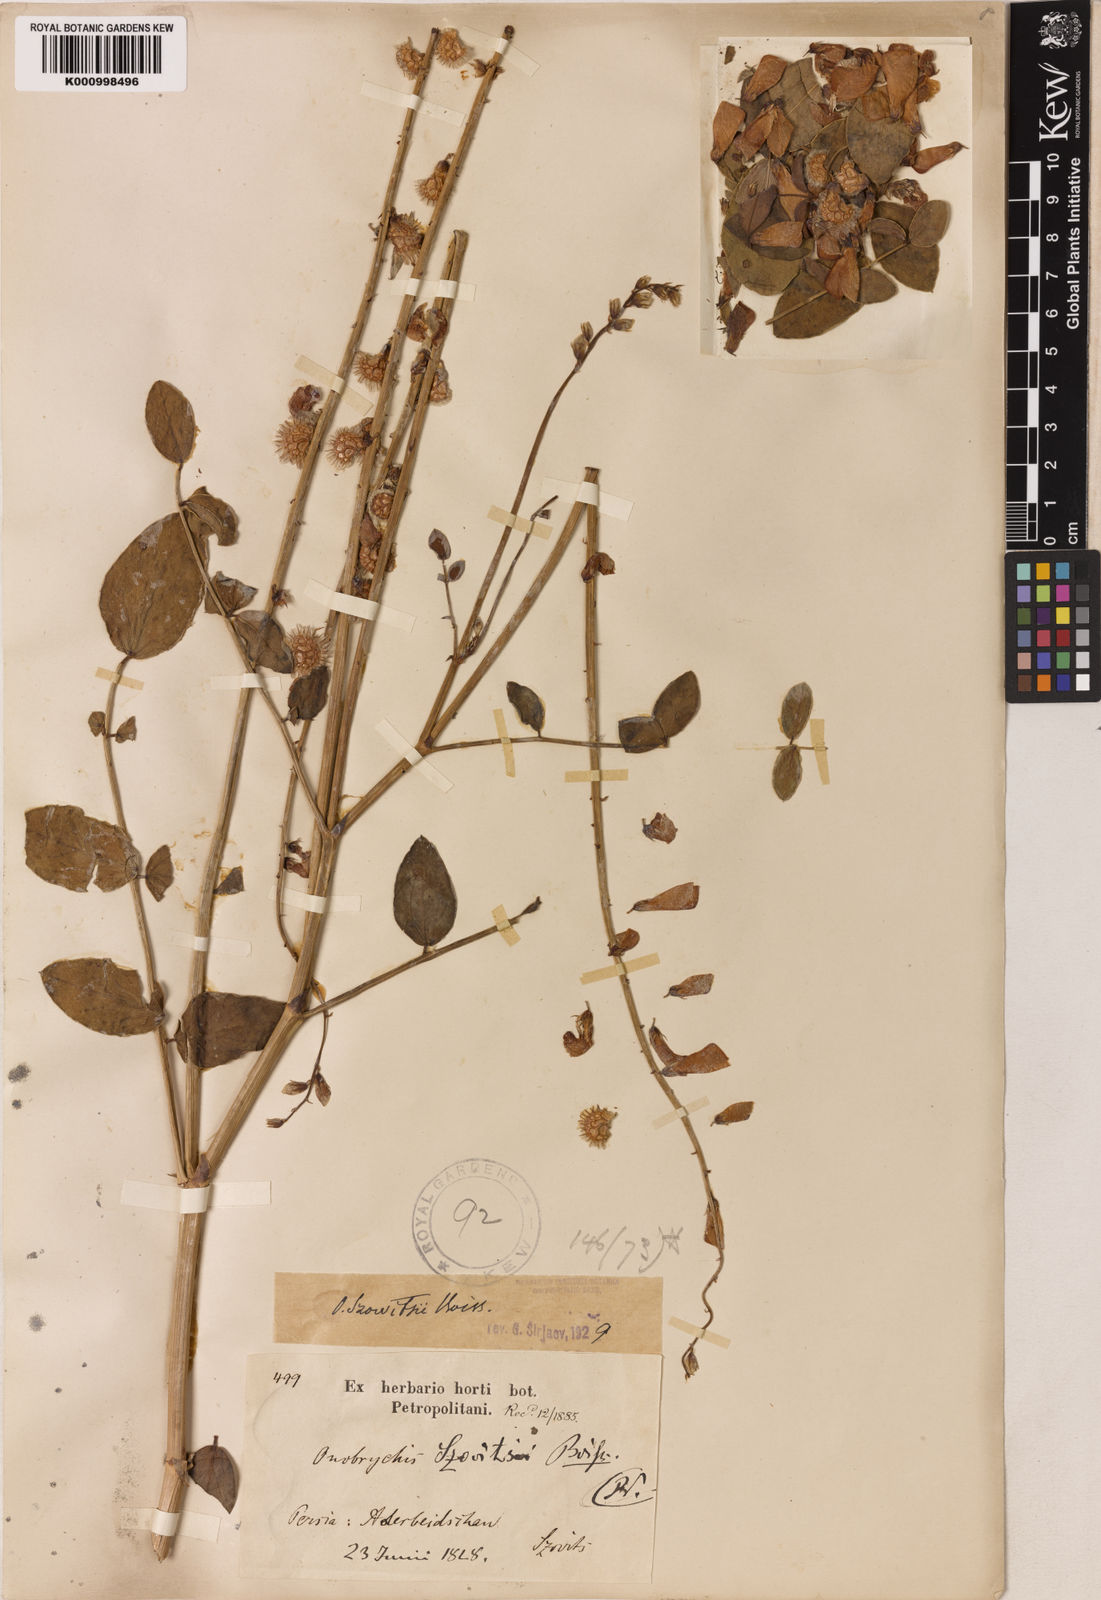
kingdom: Plantae
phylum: Tracheophyta
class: Magnoliopsida
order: Fabales
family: Fabaceae
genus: Onobrychis
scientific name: Onobrychis szovitsii
